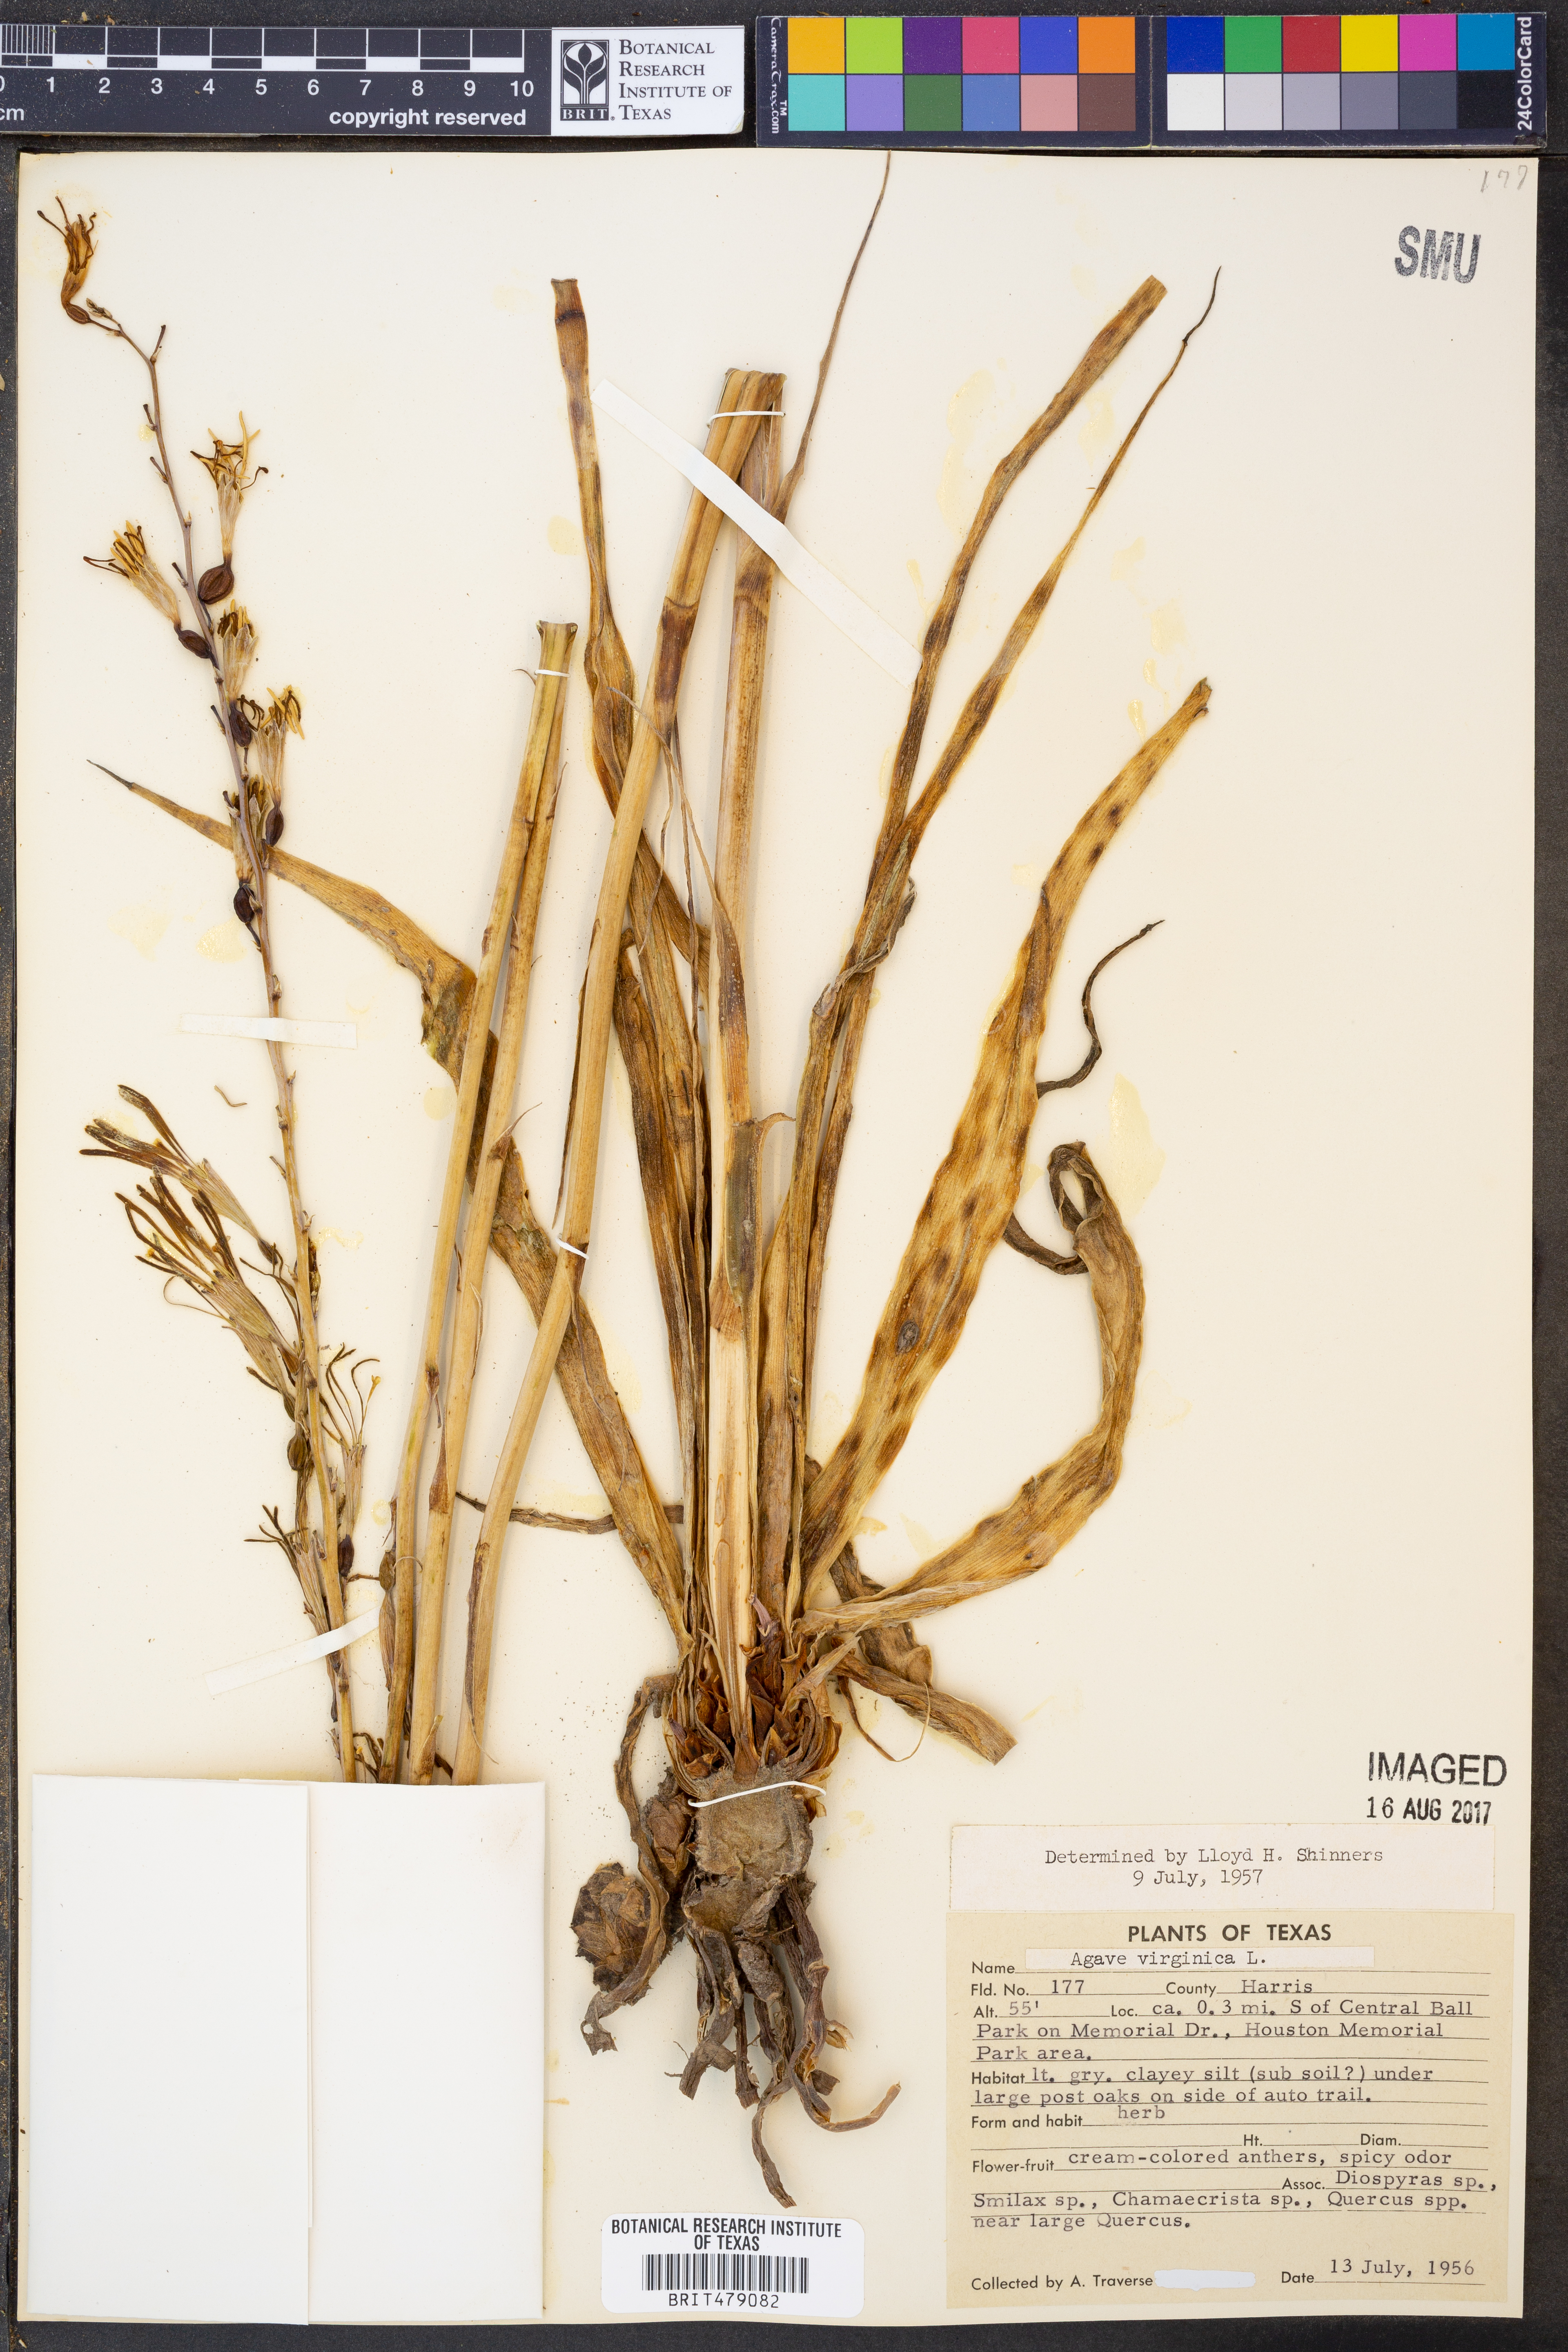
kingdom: Plantae
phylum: Tracheophyta
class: Liliopsida
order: Asparagales
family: Asparagaceae
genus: Agave
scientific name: Agave virginica
